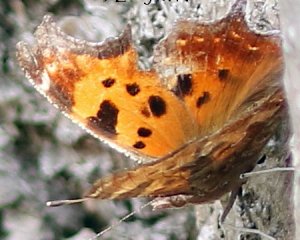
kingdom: Animalia
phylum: Arthropoda
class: Insecta
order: Lepidoptera
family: Nymphalidae
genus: Polygonia
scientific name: Polygonia comma
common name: Eastern Comma
